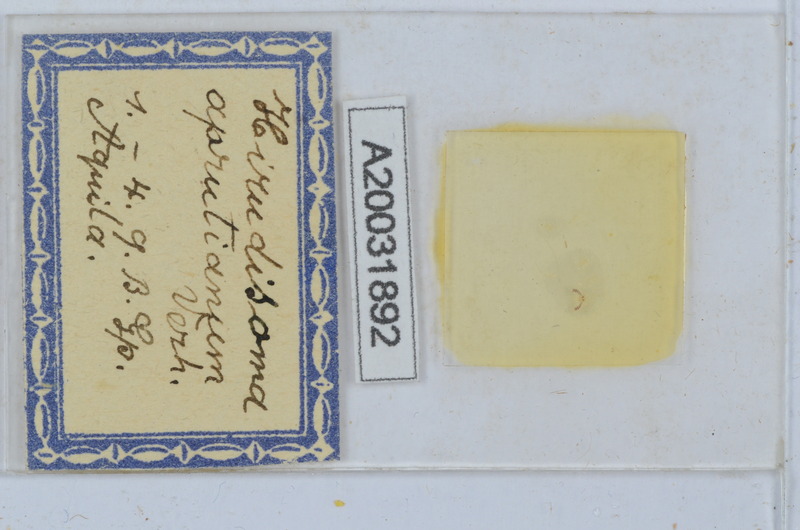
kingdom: Animalia
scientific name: Animalia
